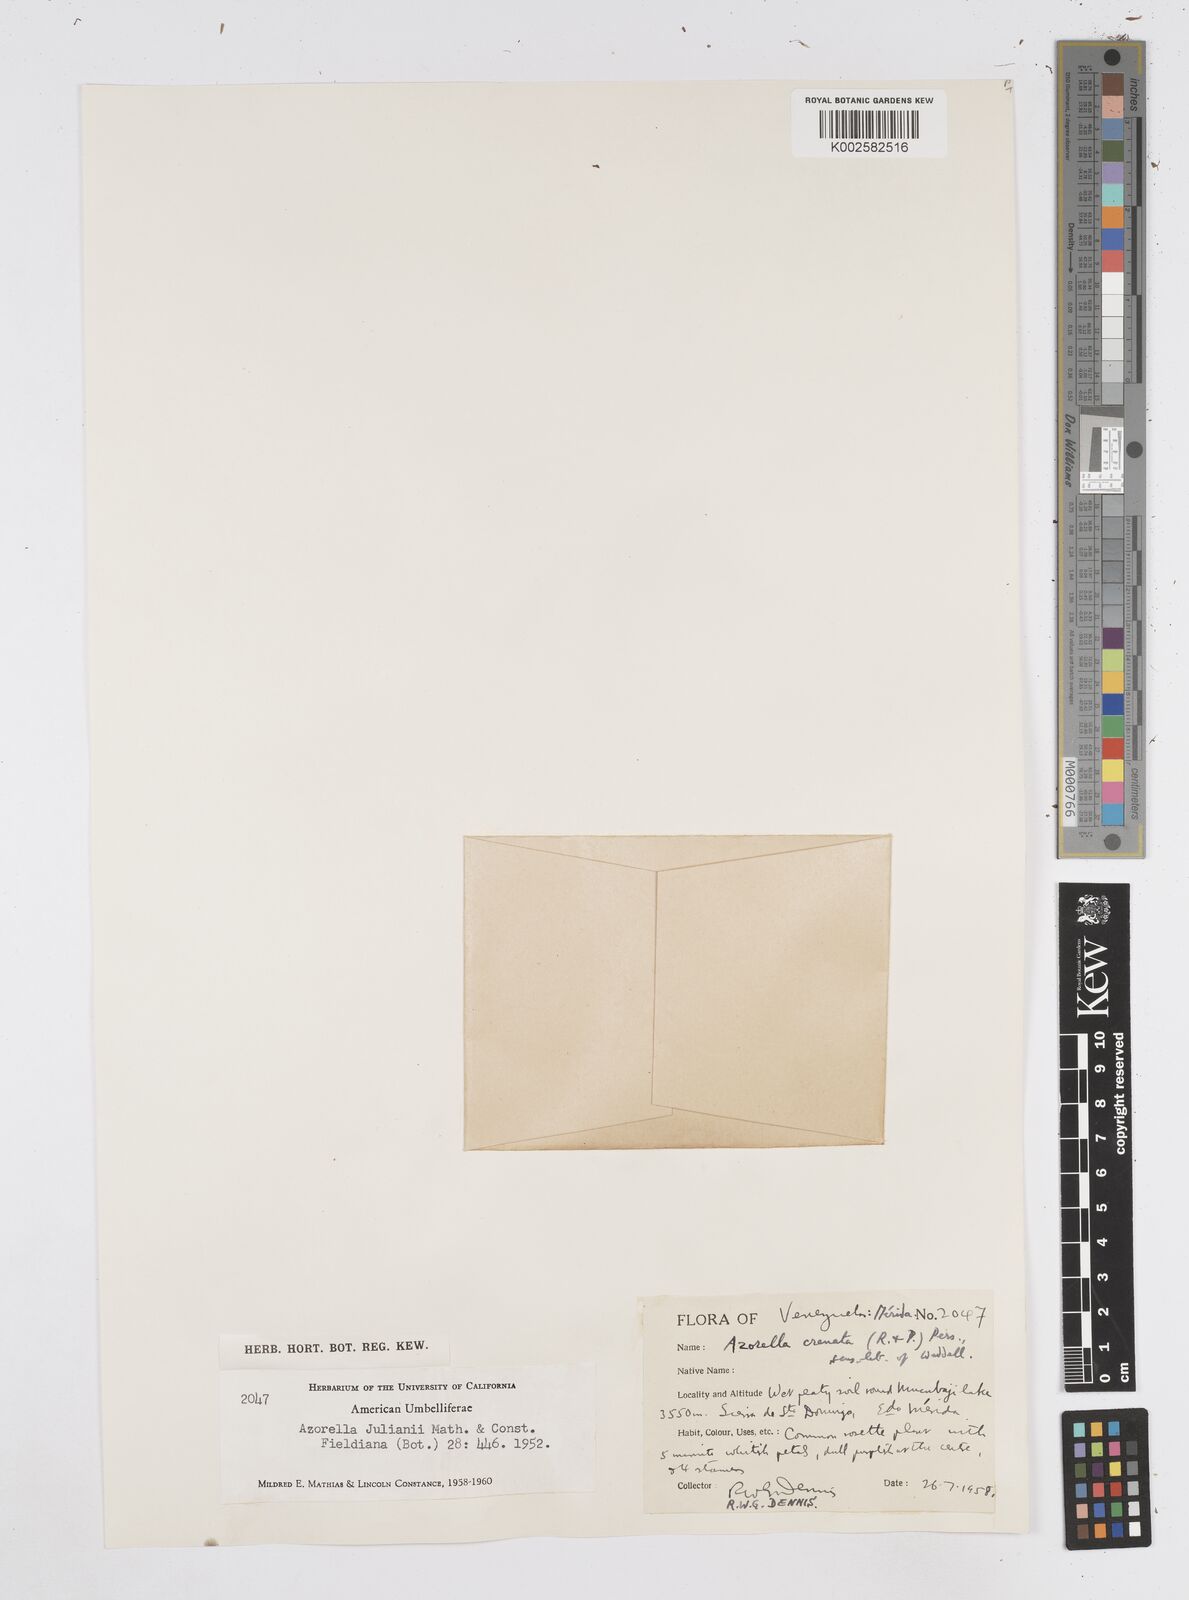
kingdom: Plantae
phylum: Tracheophyta
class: Magnoliopsida
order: Apiales
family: Apiaceae
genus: Azorella
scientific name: Azorella crenata
